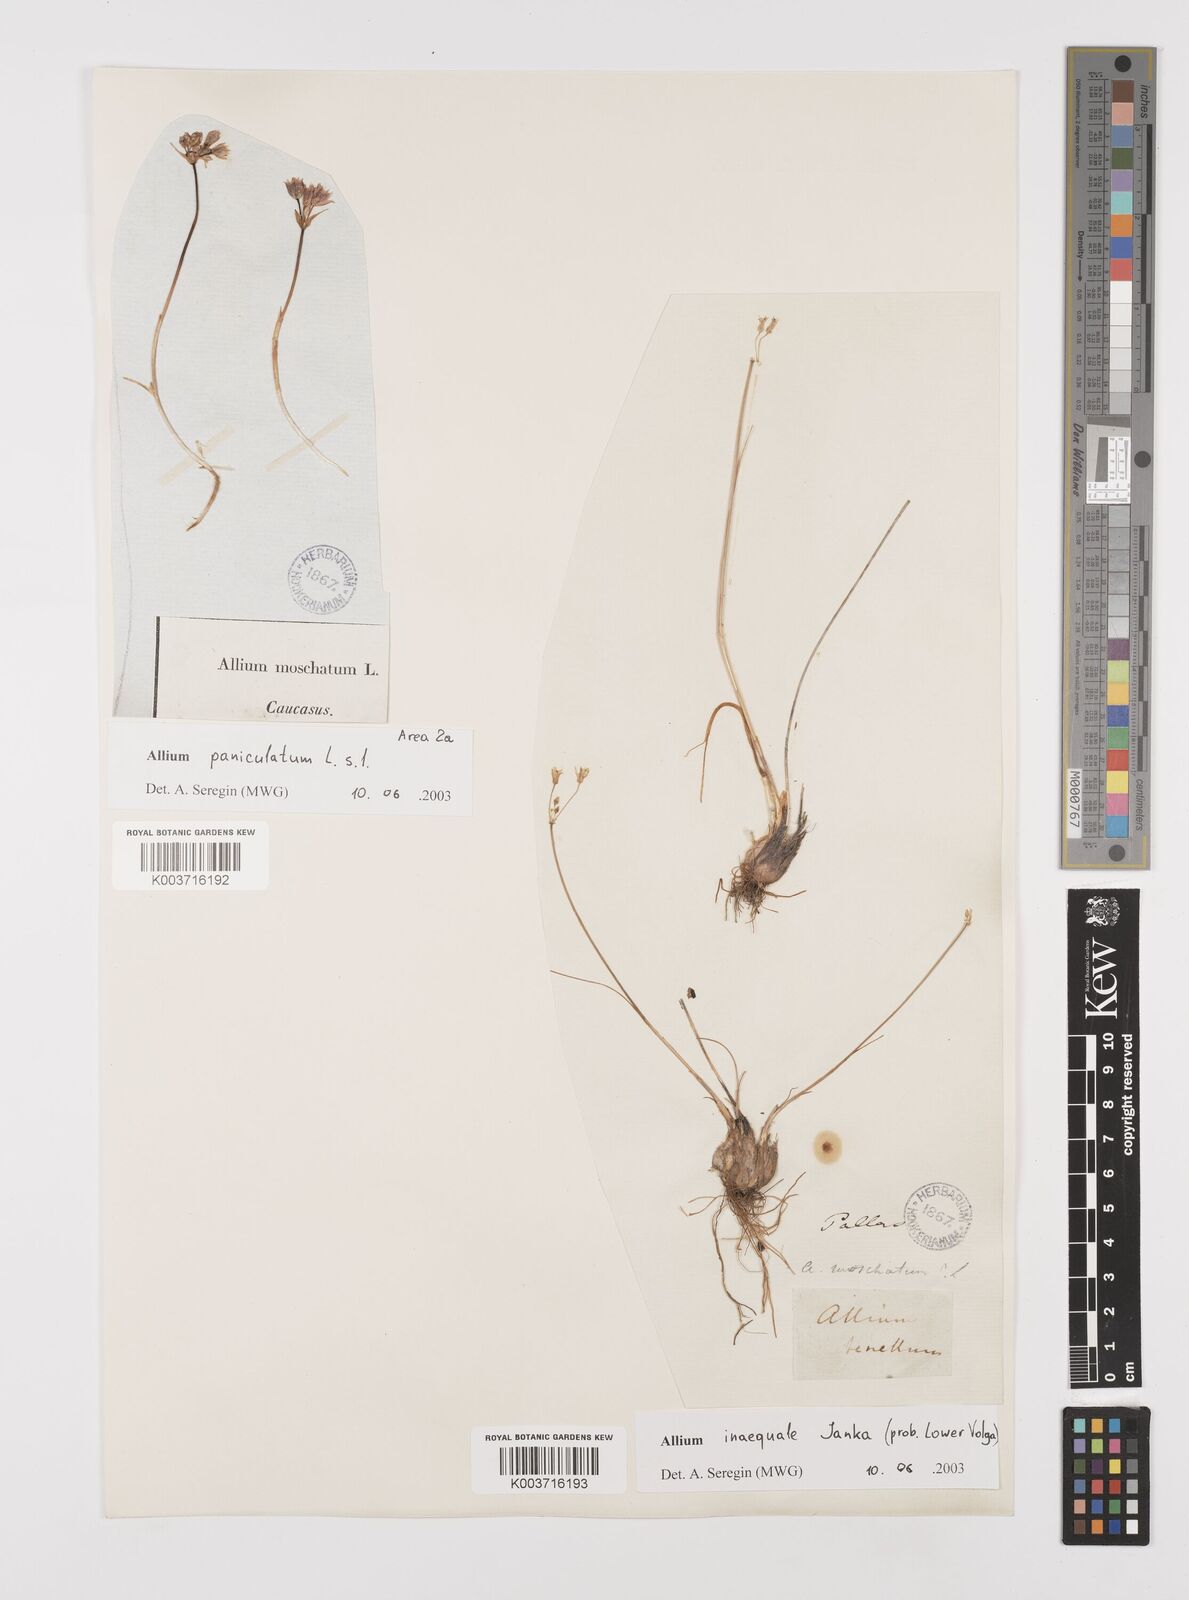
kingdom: Plantae
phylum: Tracheophyta
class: Liliopsida
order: Asparagales
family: Amaryllidaceae
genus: Allium
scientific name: Allium inaequale
